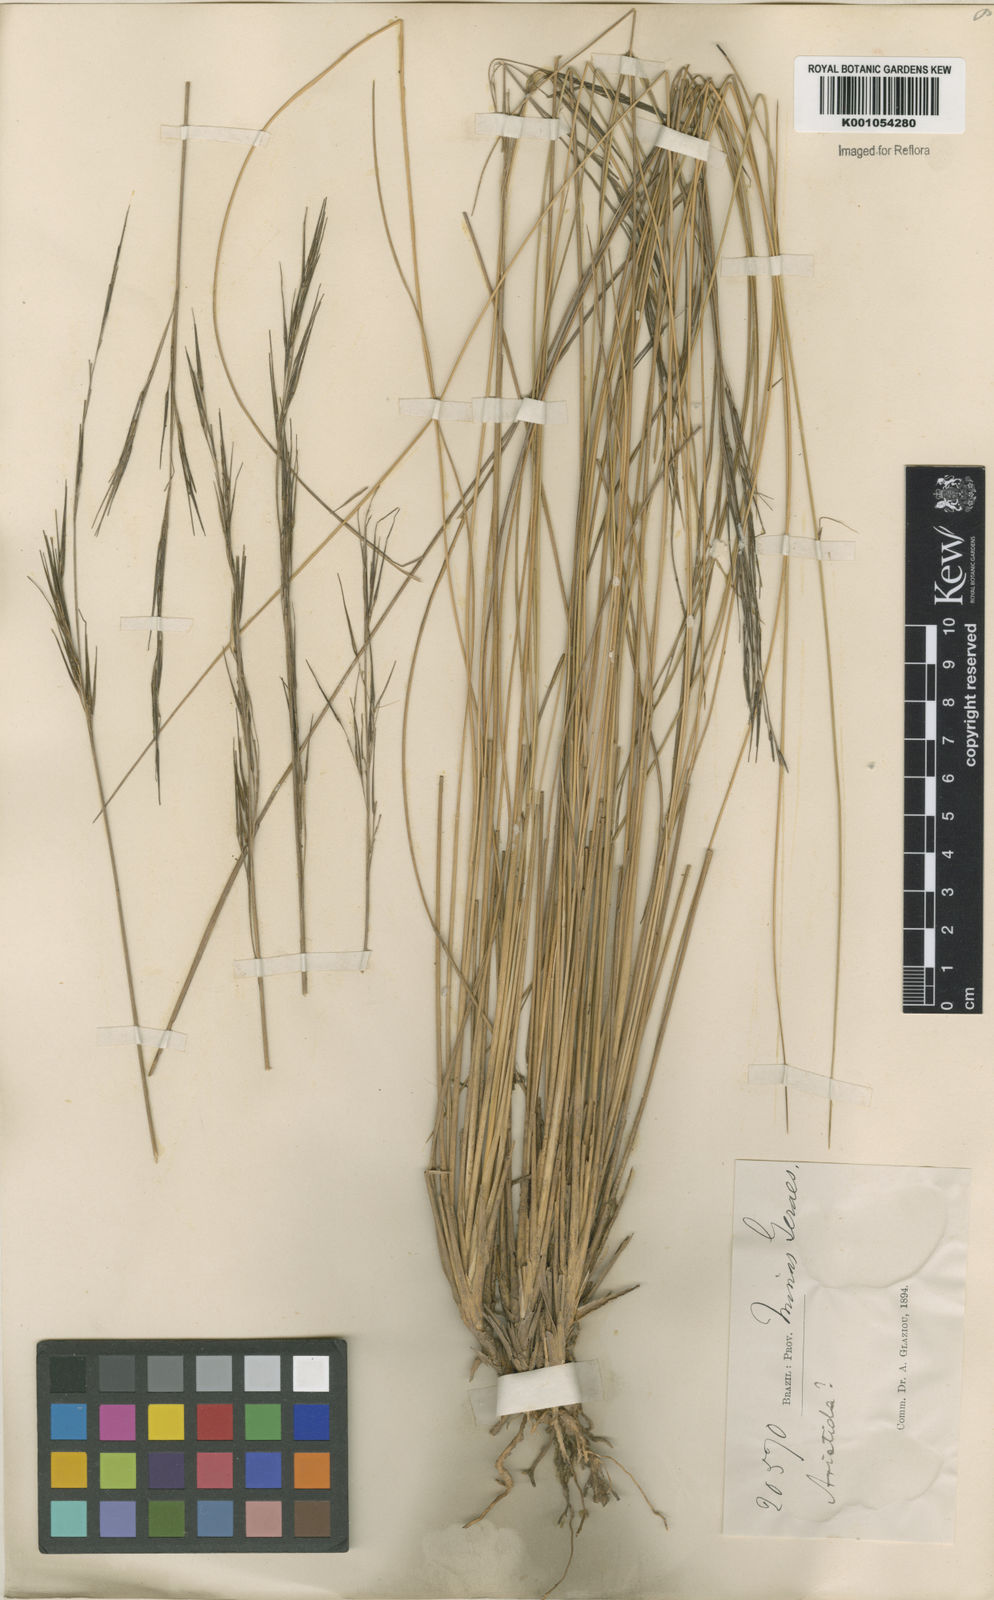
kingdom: Plantae
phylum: Tracheophyta
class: Liliopsida
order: Poales
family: Poaceae
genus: Aristida
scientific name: Aristida torta
